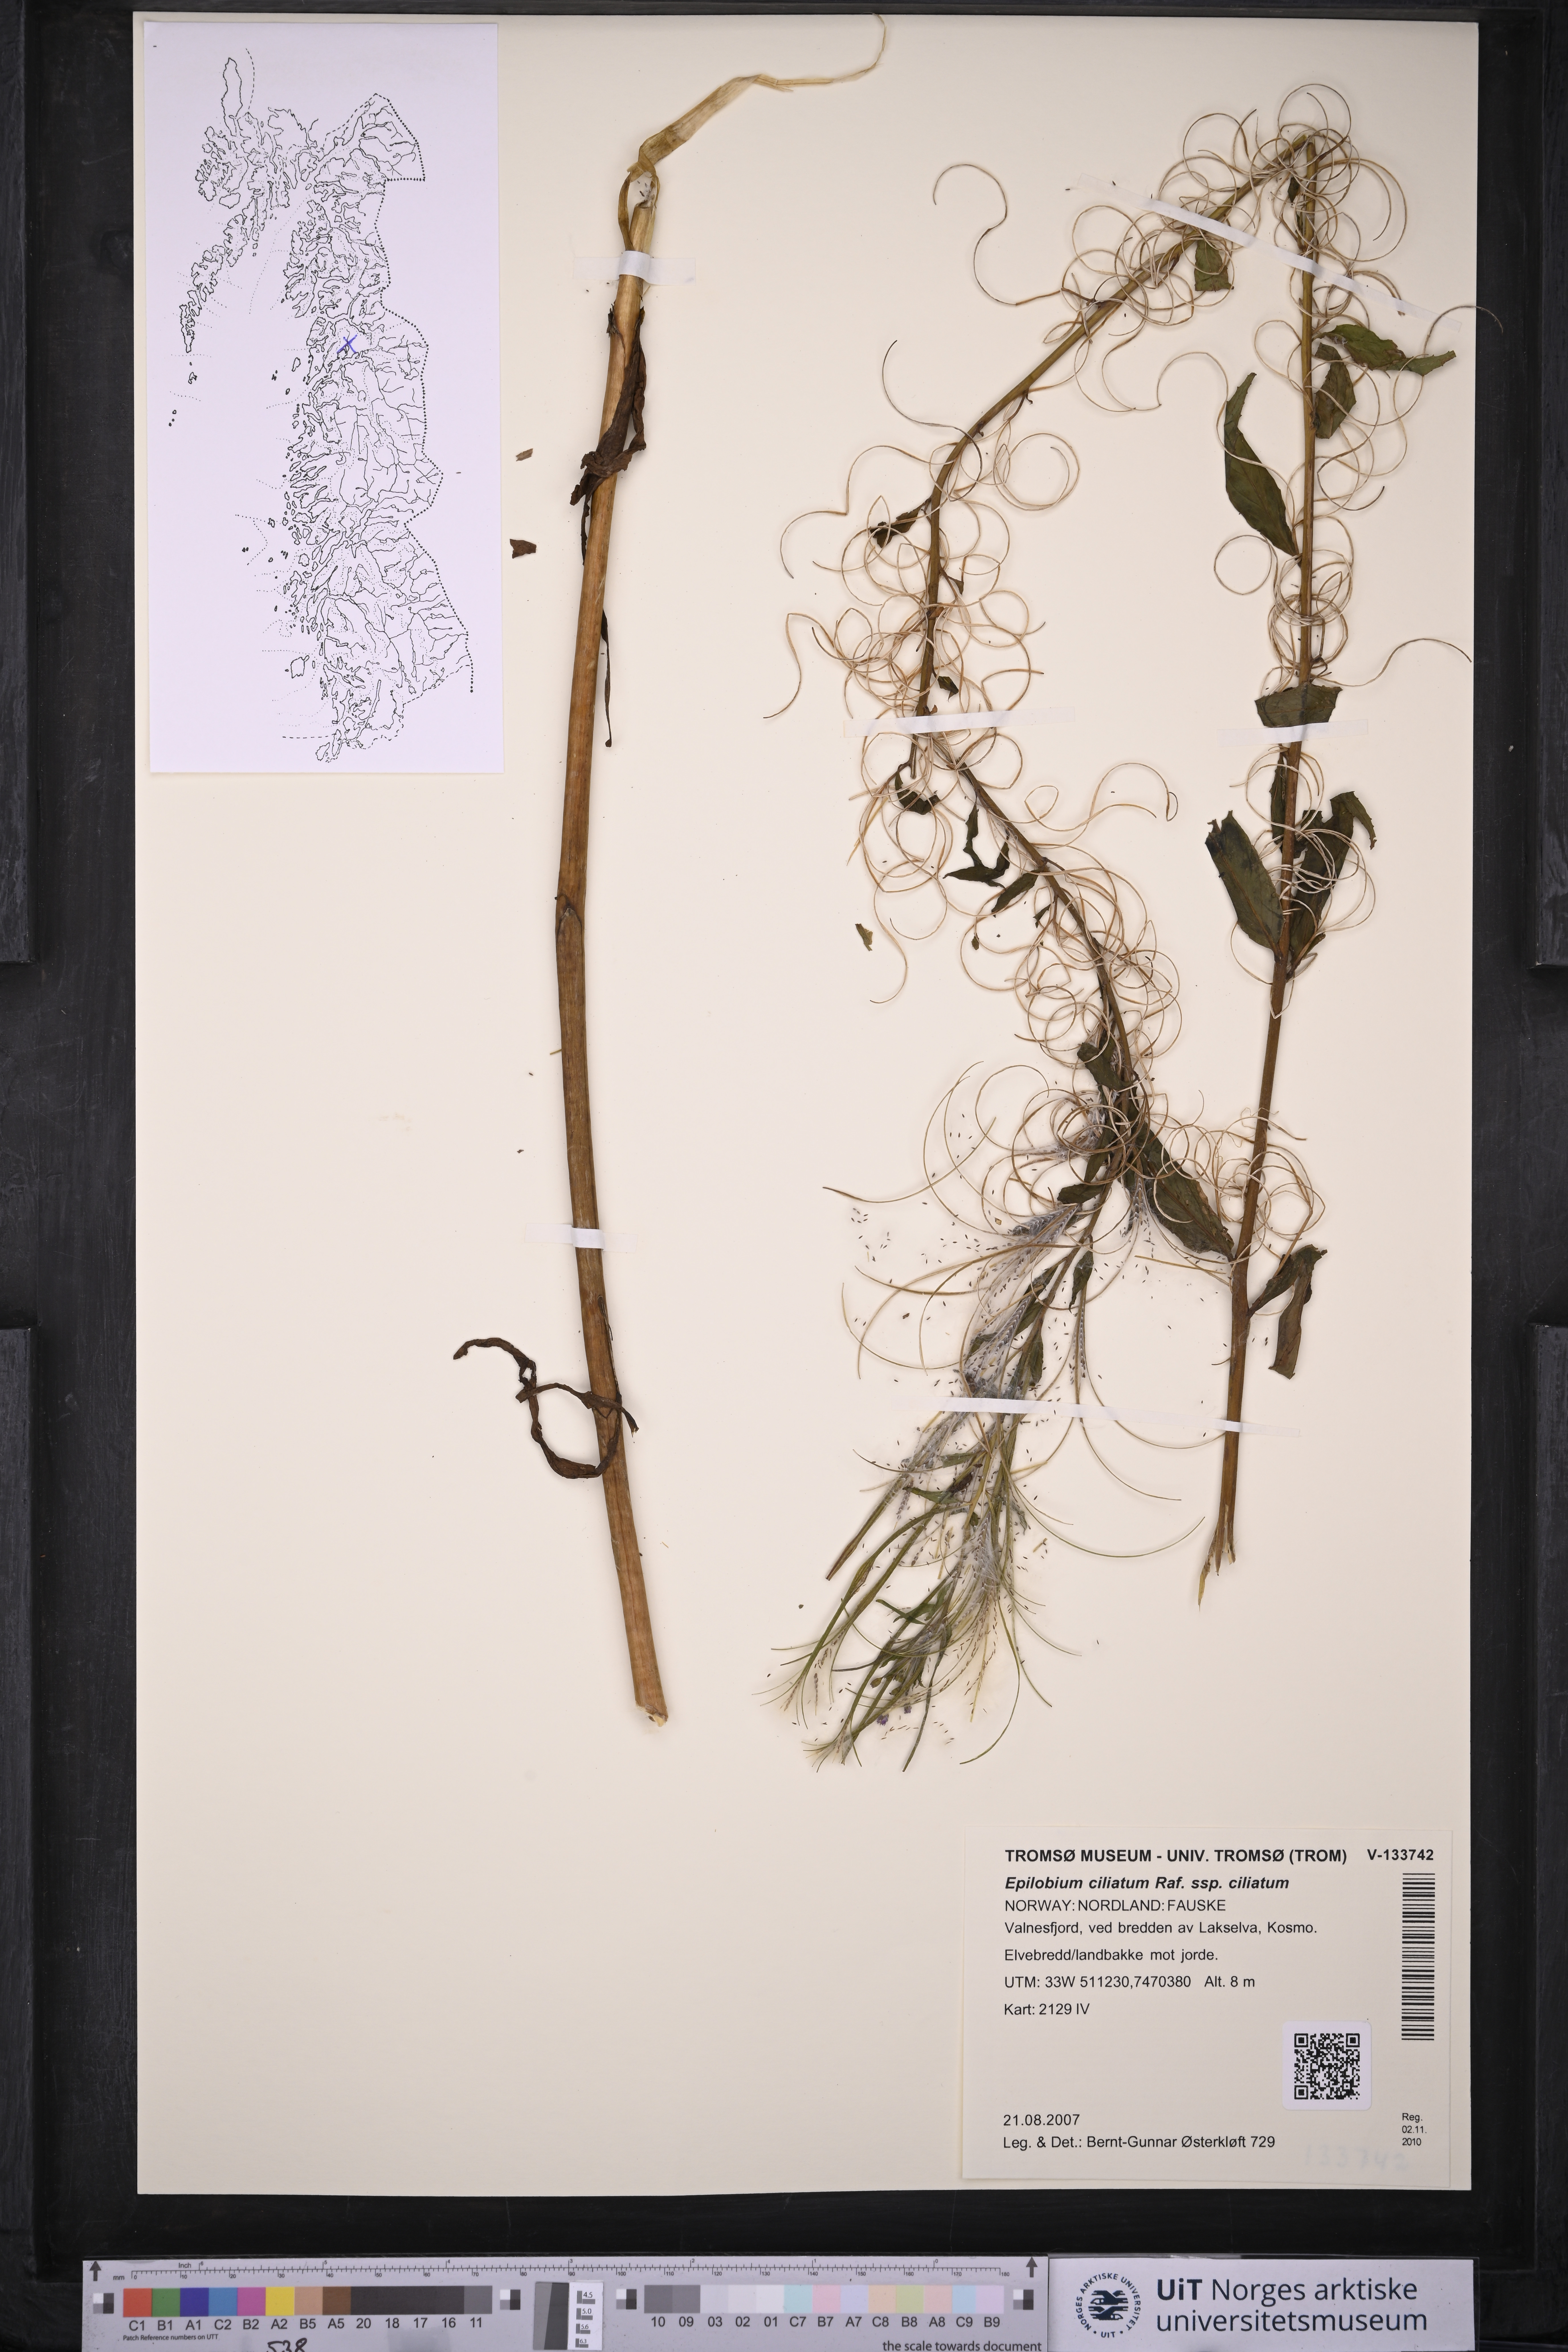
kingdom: Plantae
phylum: Tracheophyta
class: Magnoliopsida
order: Myrtales
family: Onagraceae
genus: Epilobium
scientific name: Epilobium ciliatum
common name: American willowherb
